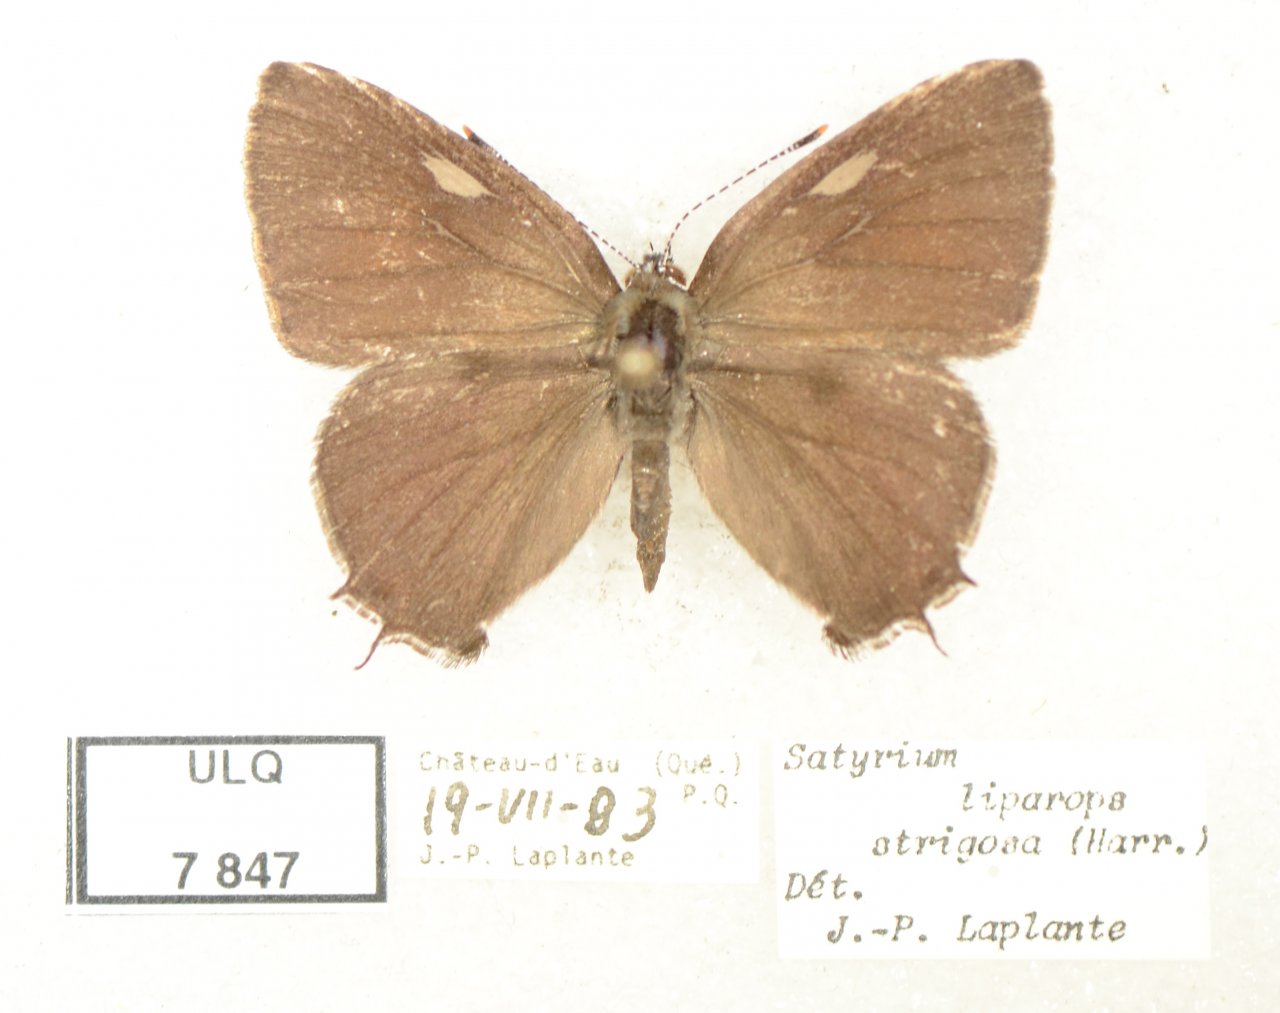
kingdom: Animalia
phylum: Arthropoda
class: Insecta
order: Lepidoptera
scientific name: Lepidoptera
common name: Butterflies
